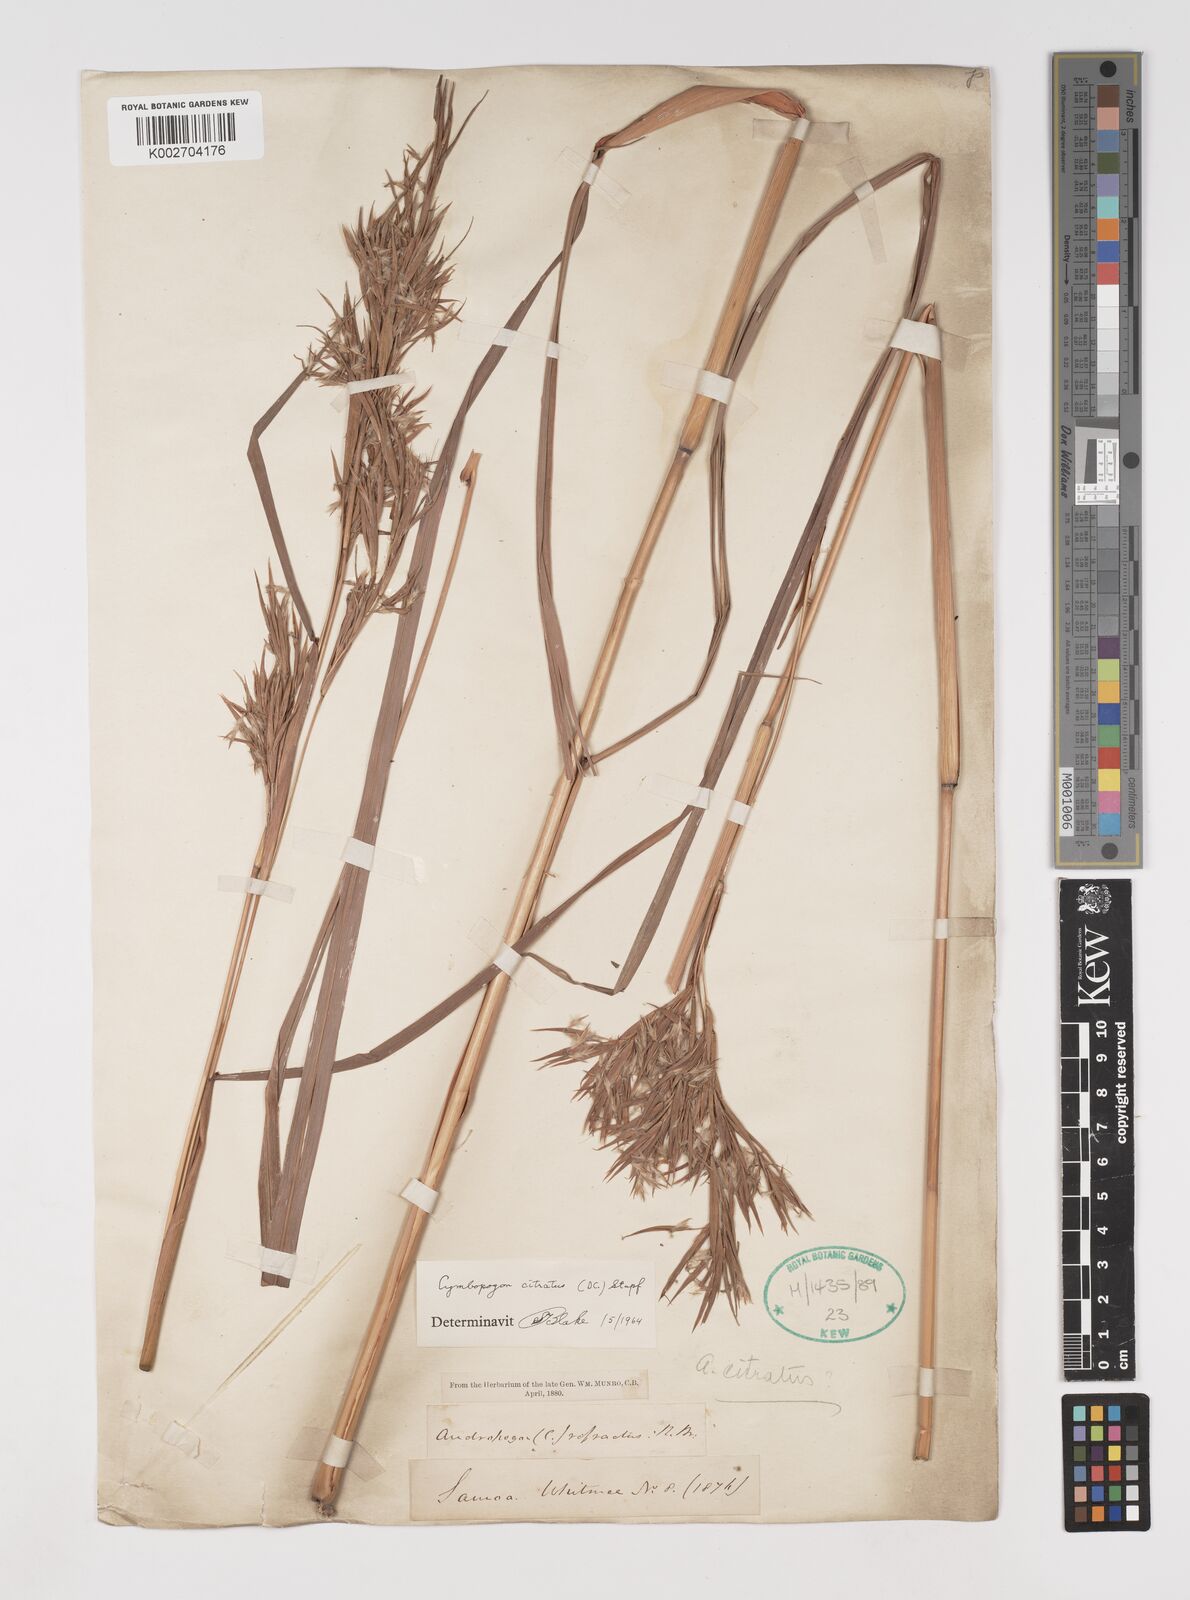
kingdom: Plantae
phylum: Tracheophyta
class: Liliopsida
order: Poales
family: Poaceae
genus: Cymbopogon
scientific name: Cymbopogon citratus
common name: Lemon grass
